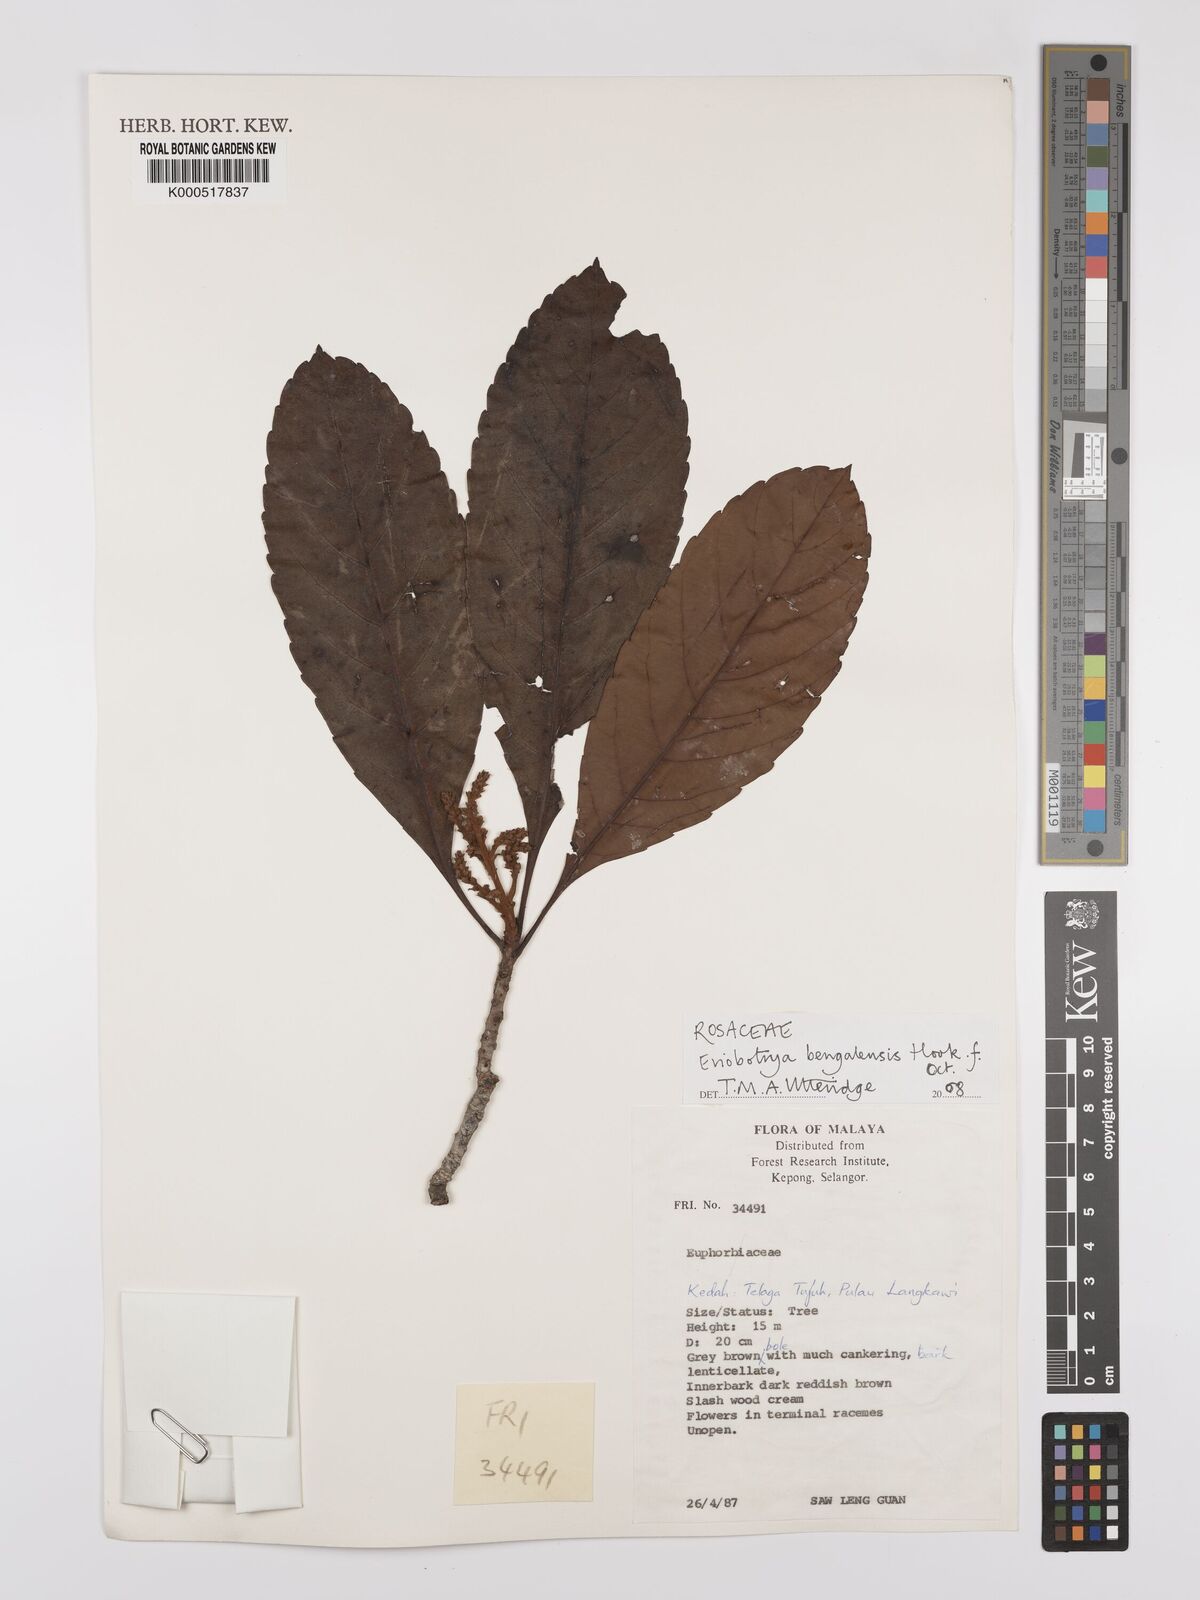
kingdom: Plantae
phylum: Tracheophyta
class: Magnoliopsida
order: Rosales
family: Rosaceae
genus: Rhaphiolepis
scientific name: Rhaphiolepis
